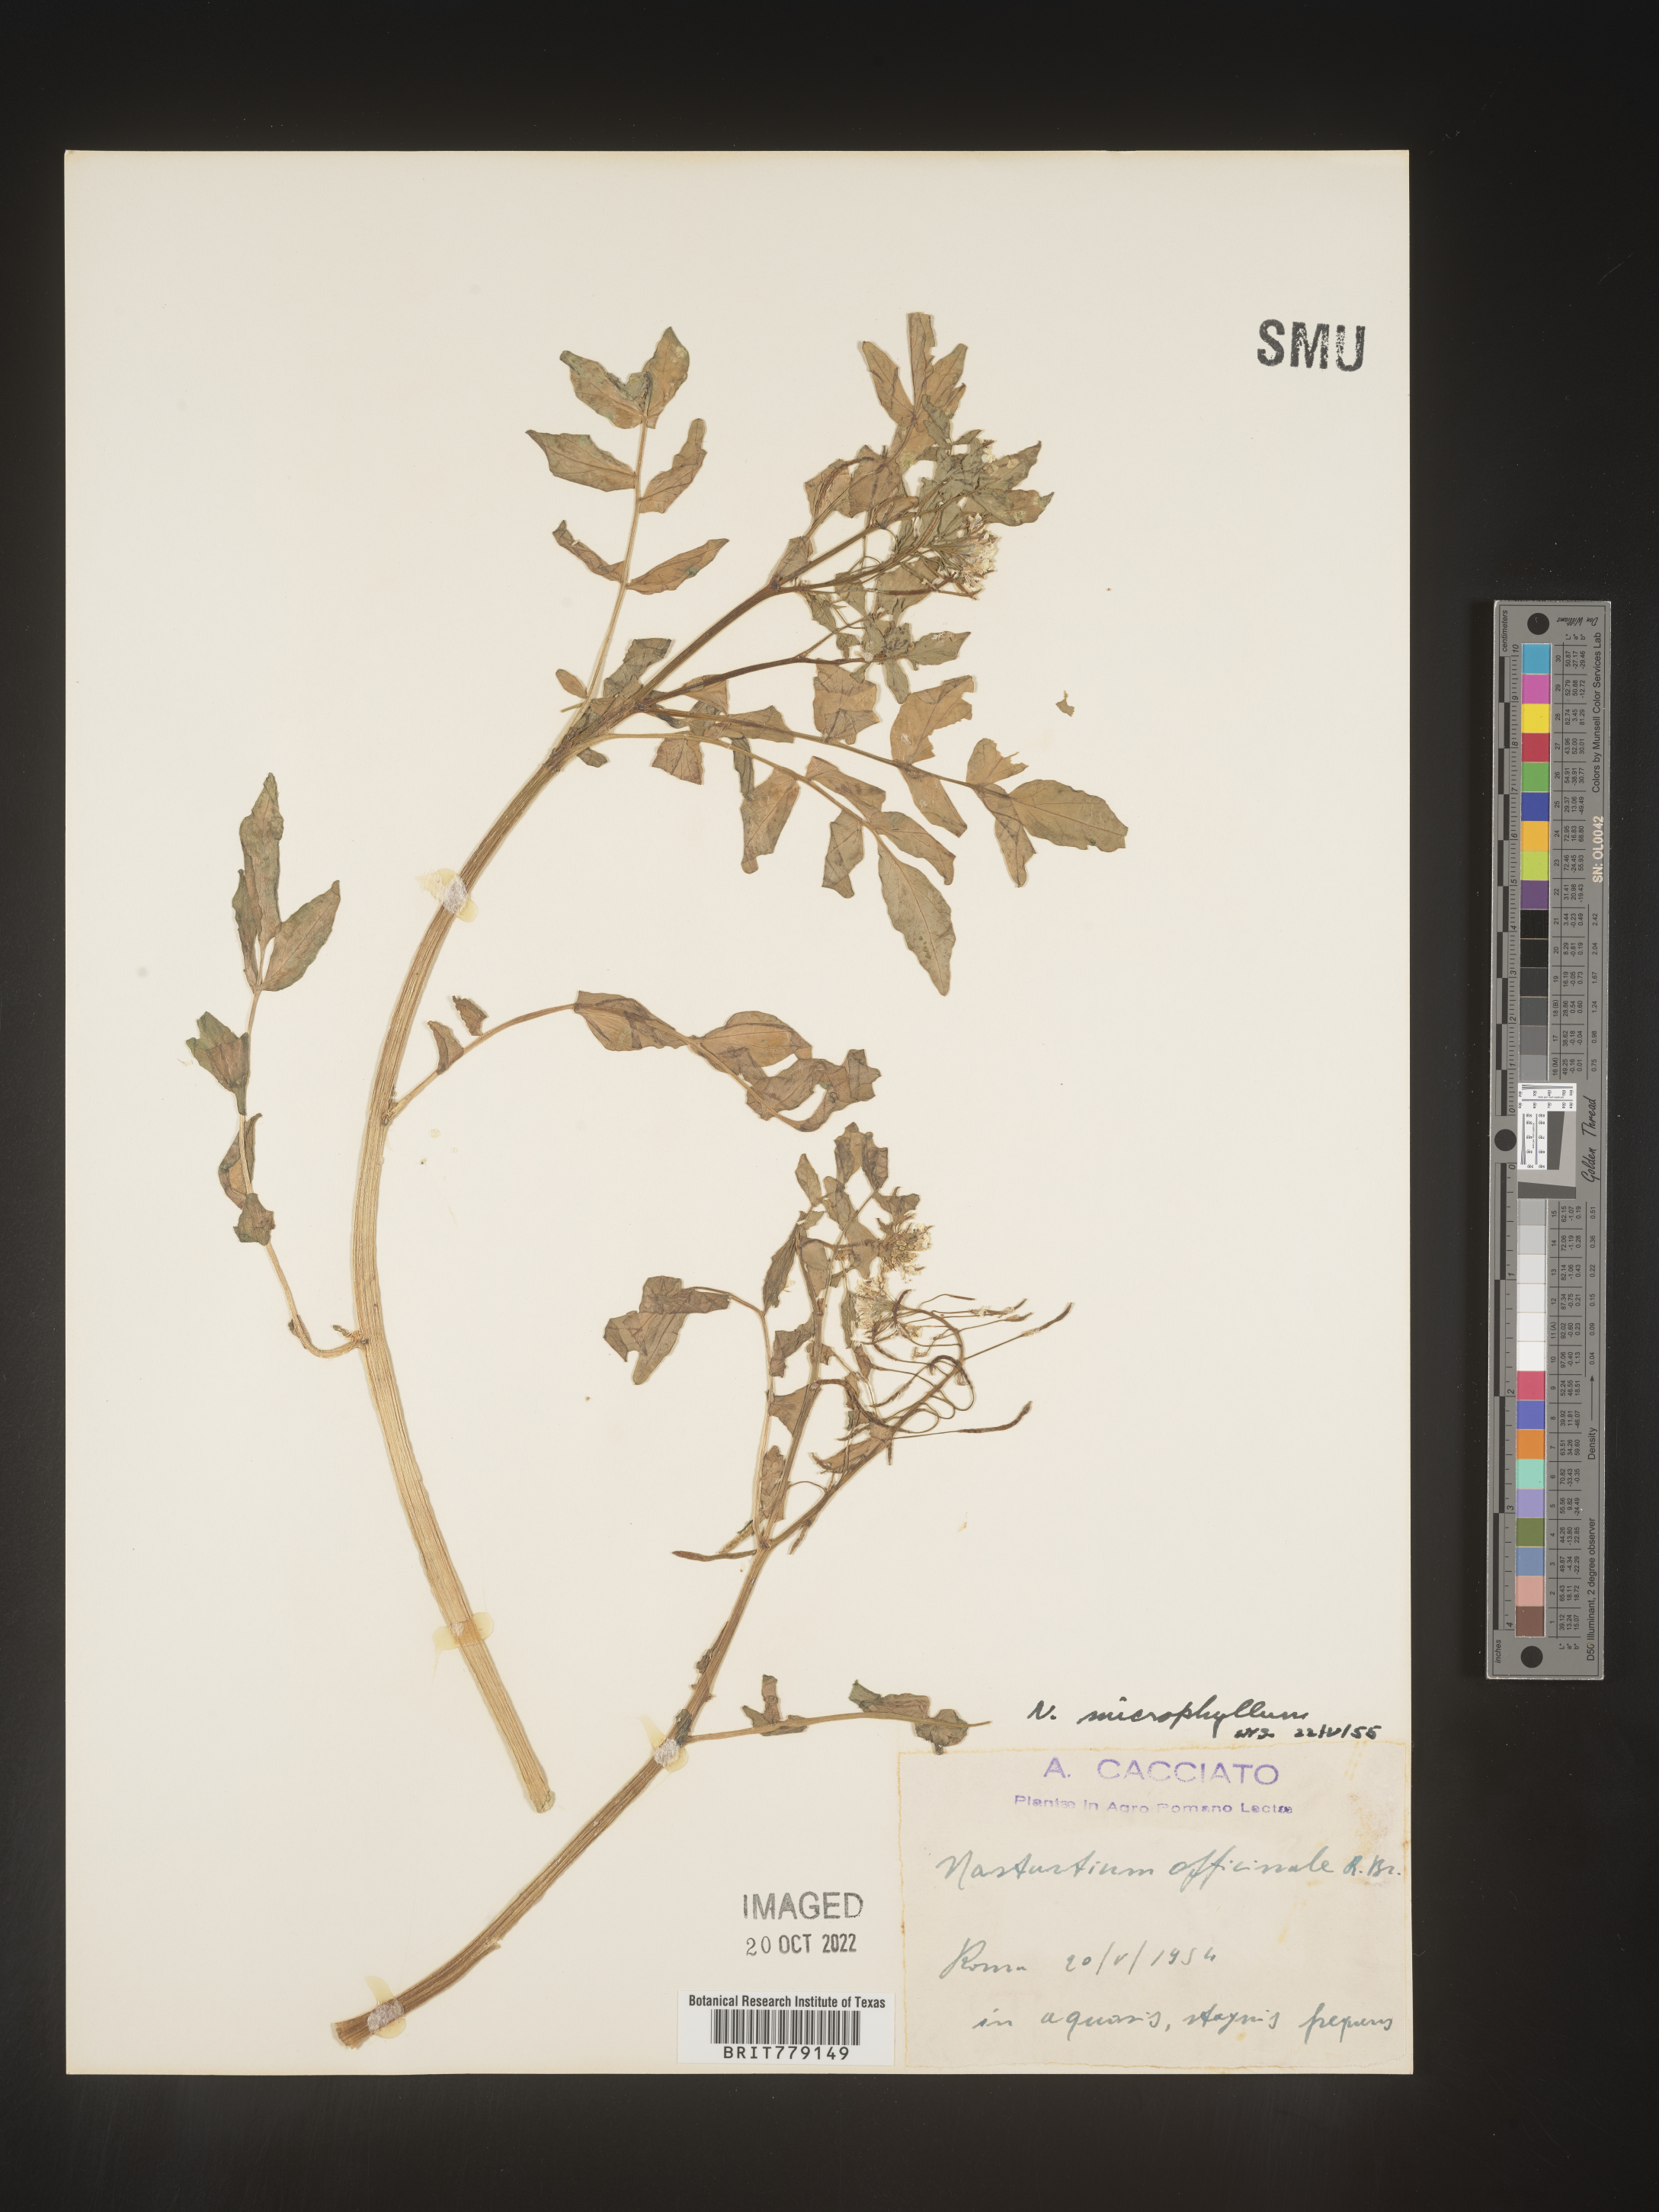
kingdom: Plantae
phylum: Tracheophyta
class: Magnoliopsida
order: Brassicales
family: Brassicaceae
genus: Rorippa
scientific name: Rorippa
